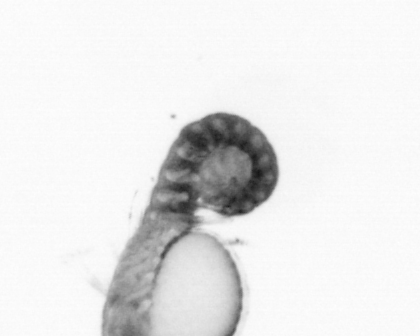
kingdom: Animalia
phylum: Annelida
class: Polychaeta
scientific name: Polychaeta
